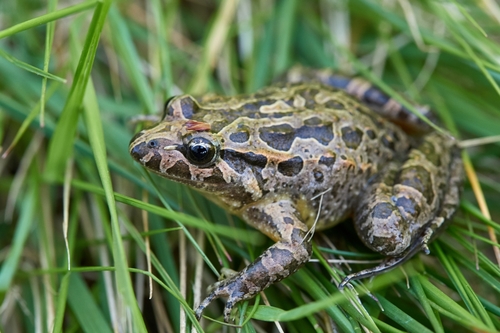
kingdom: Animalia
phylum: Chordata
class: Amphibia
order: Anura
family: Alytidae
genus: Discoglossus
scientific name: Discoglossus galganoi
